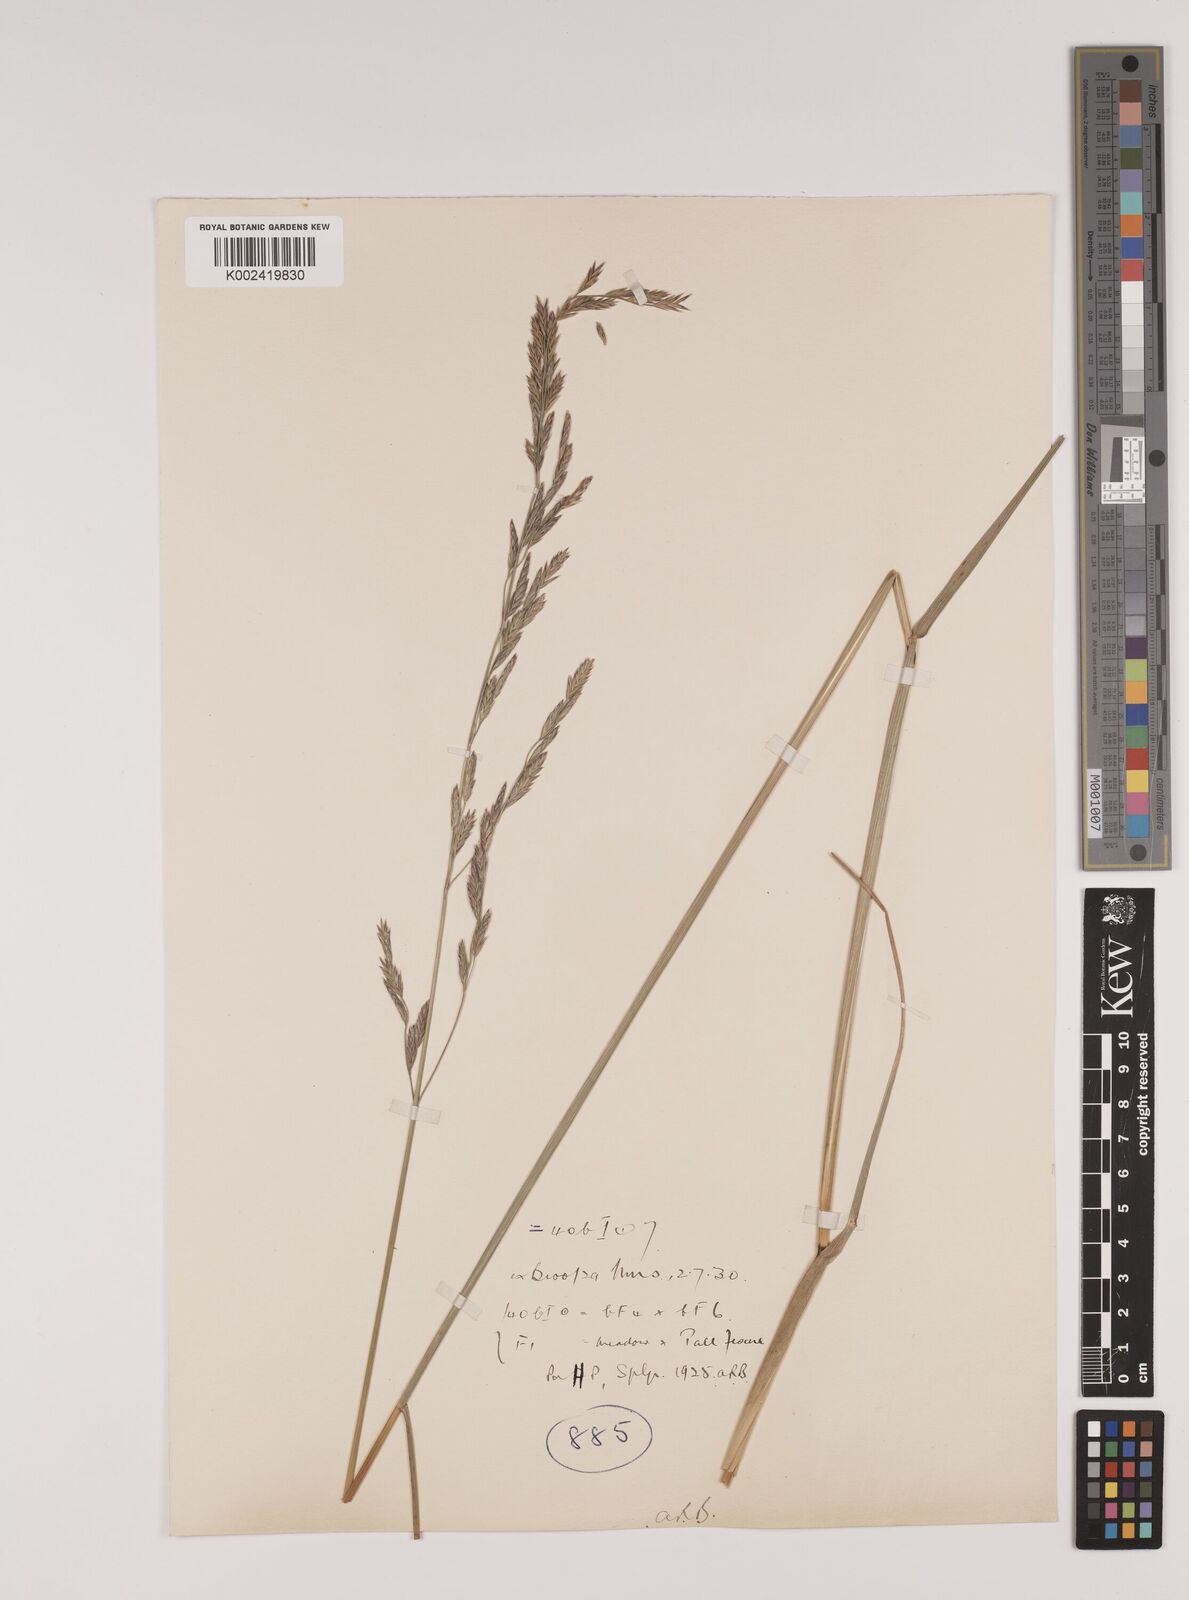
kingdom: Plantae
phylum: Tracheophyta
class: Liliopsida
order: Poales
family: Poaceae
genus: Festuca
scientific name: Festuca rubra
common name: Red fescue
